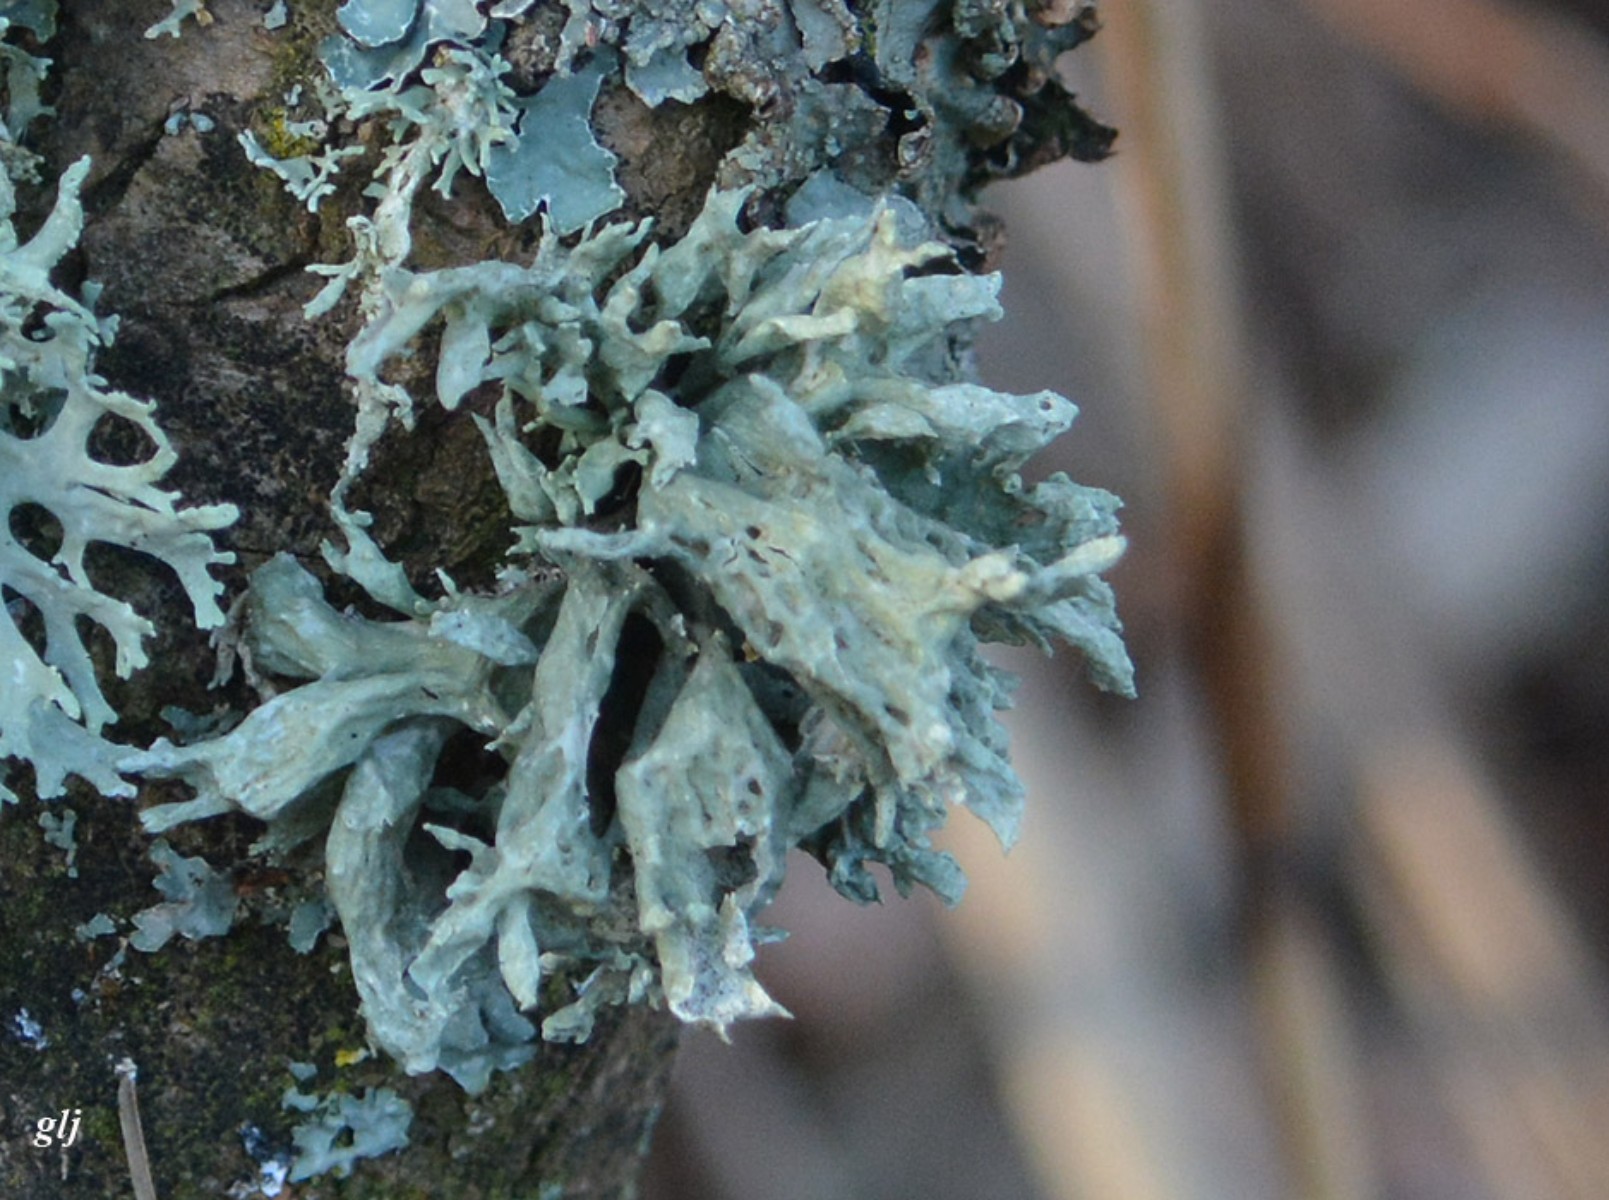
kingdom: Fungi
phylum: Ascomycota
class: Lecanoromycetes
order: Lecanorales
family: Ramalinaceae
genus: Ramalina
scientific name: Ramalina fastigiata
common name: tue-grenlav
